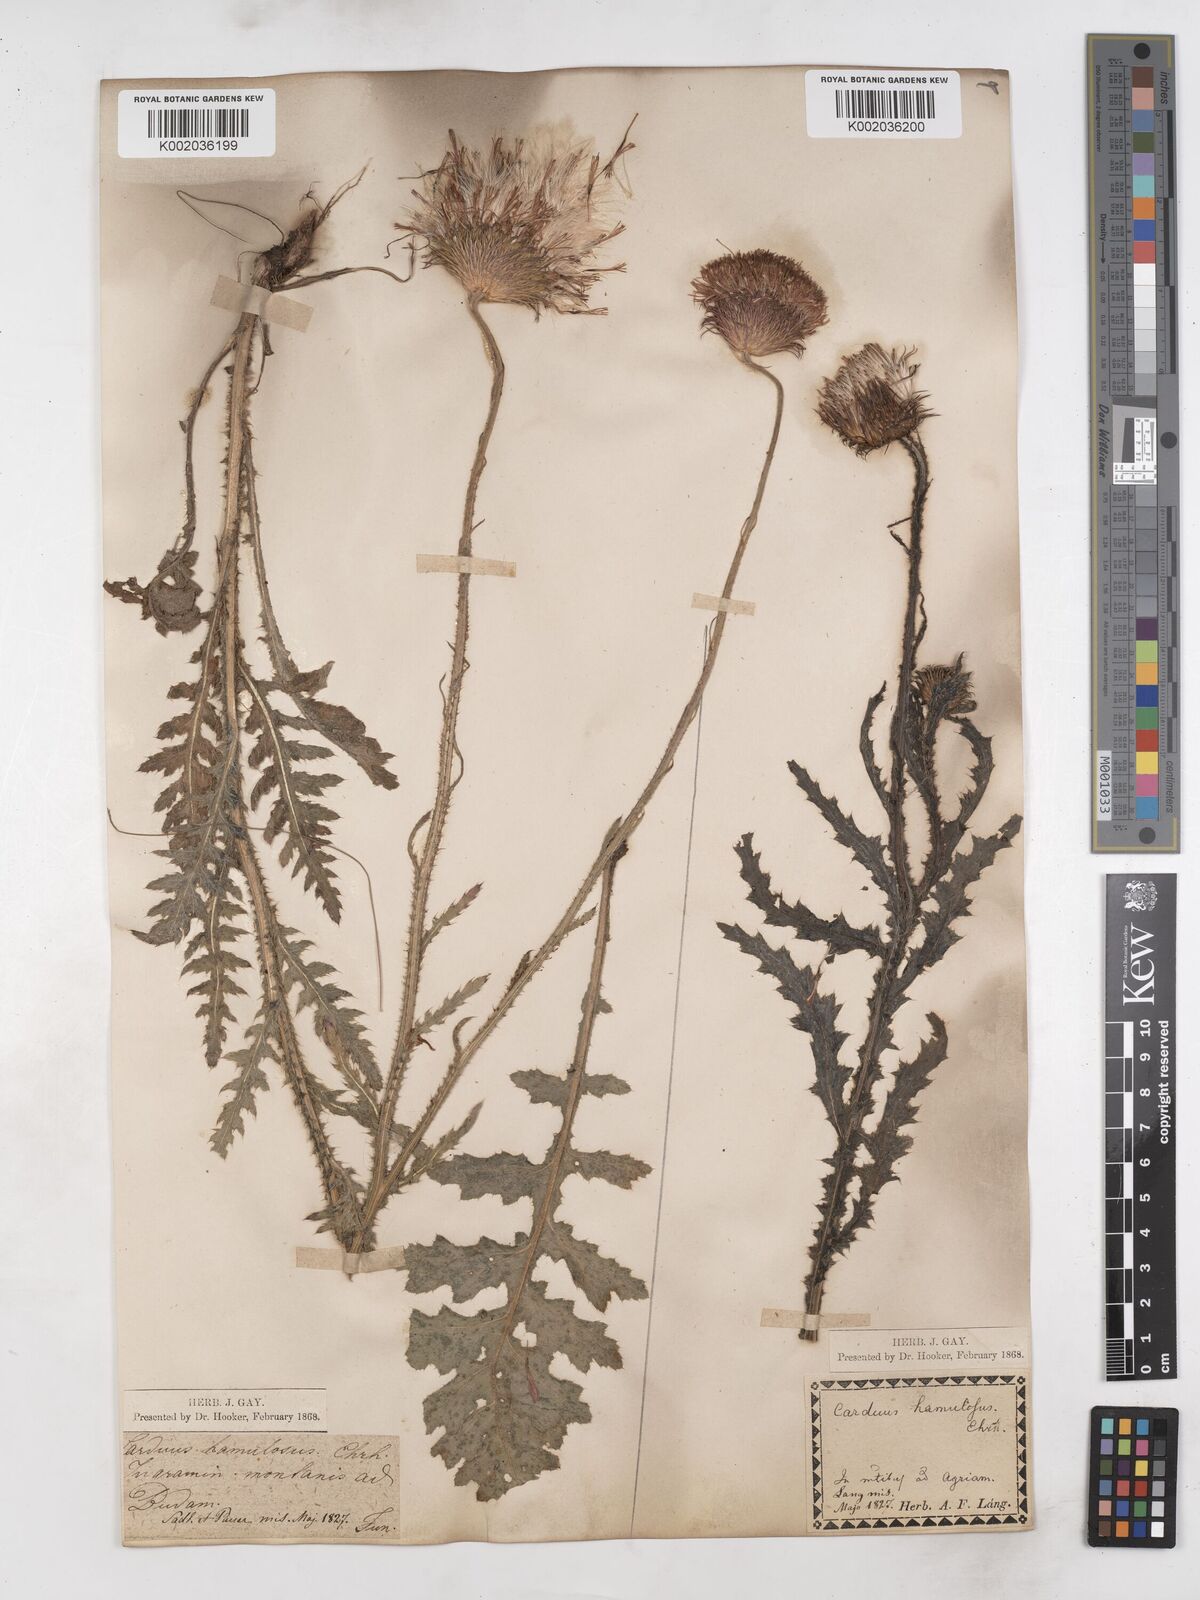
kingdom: Plantae
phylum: Tracheophyta
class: Magnoliopsida
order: Asterales
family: Asteraceae
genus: Carduus
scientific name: Carduus hamulosus
